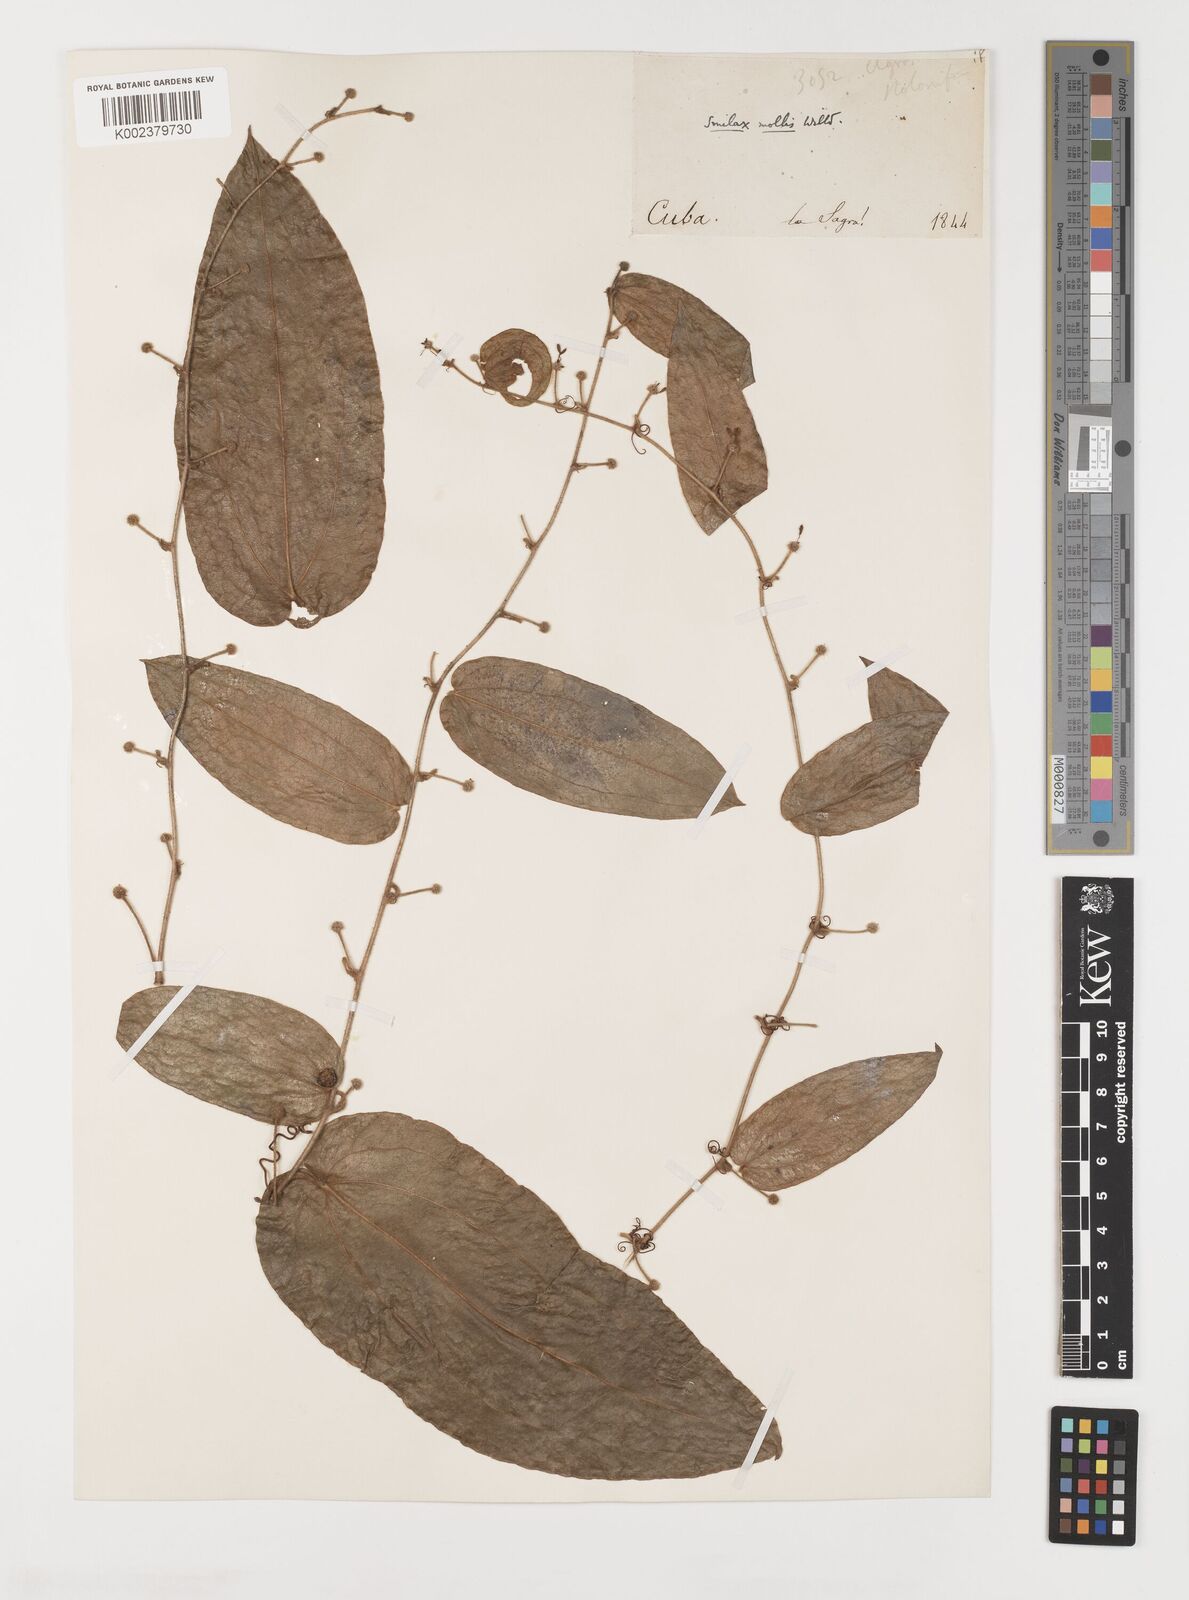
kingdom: Plantae
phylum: Tracheophyta
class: Liliopsida
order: Liliales
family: Smilacaceae
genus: Smilax
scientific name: Smilax mollis
